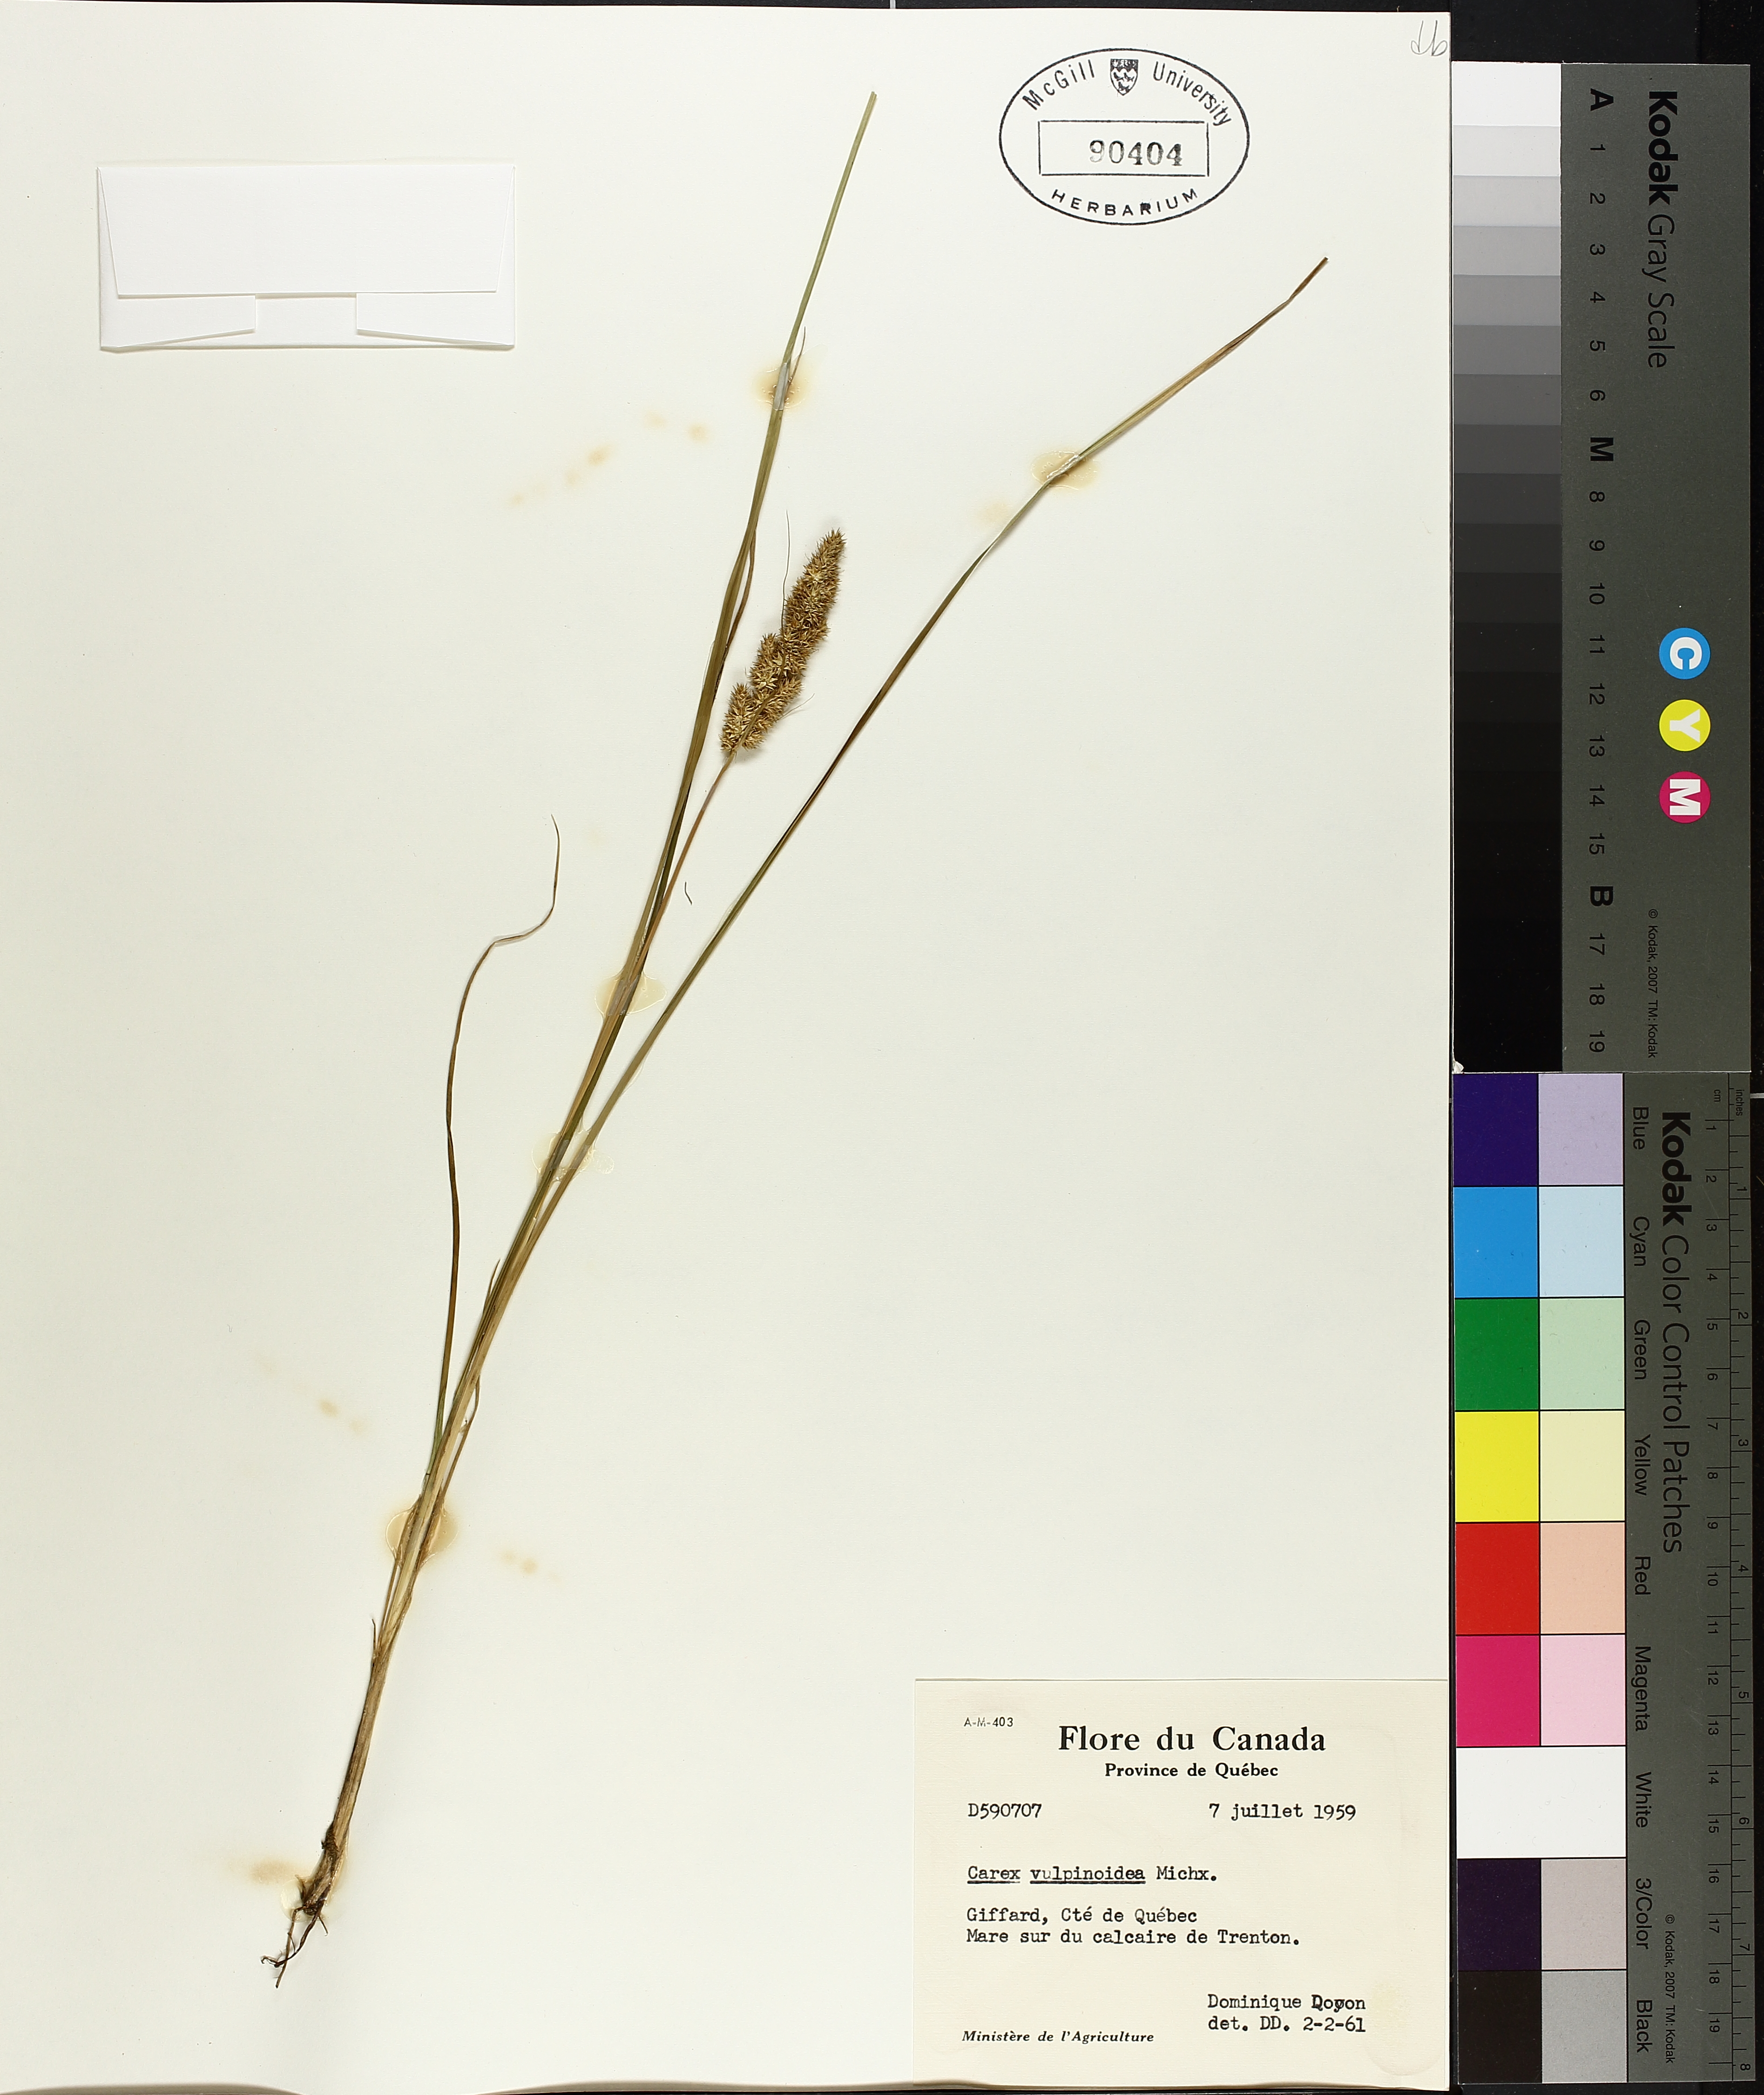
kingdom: Plantae
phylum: Tracheophyta
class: Liliopsida
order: Poales
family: Cyperaceae
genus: Carex
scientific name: Carex vulpinoidea
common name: American fox-sedge
